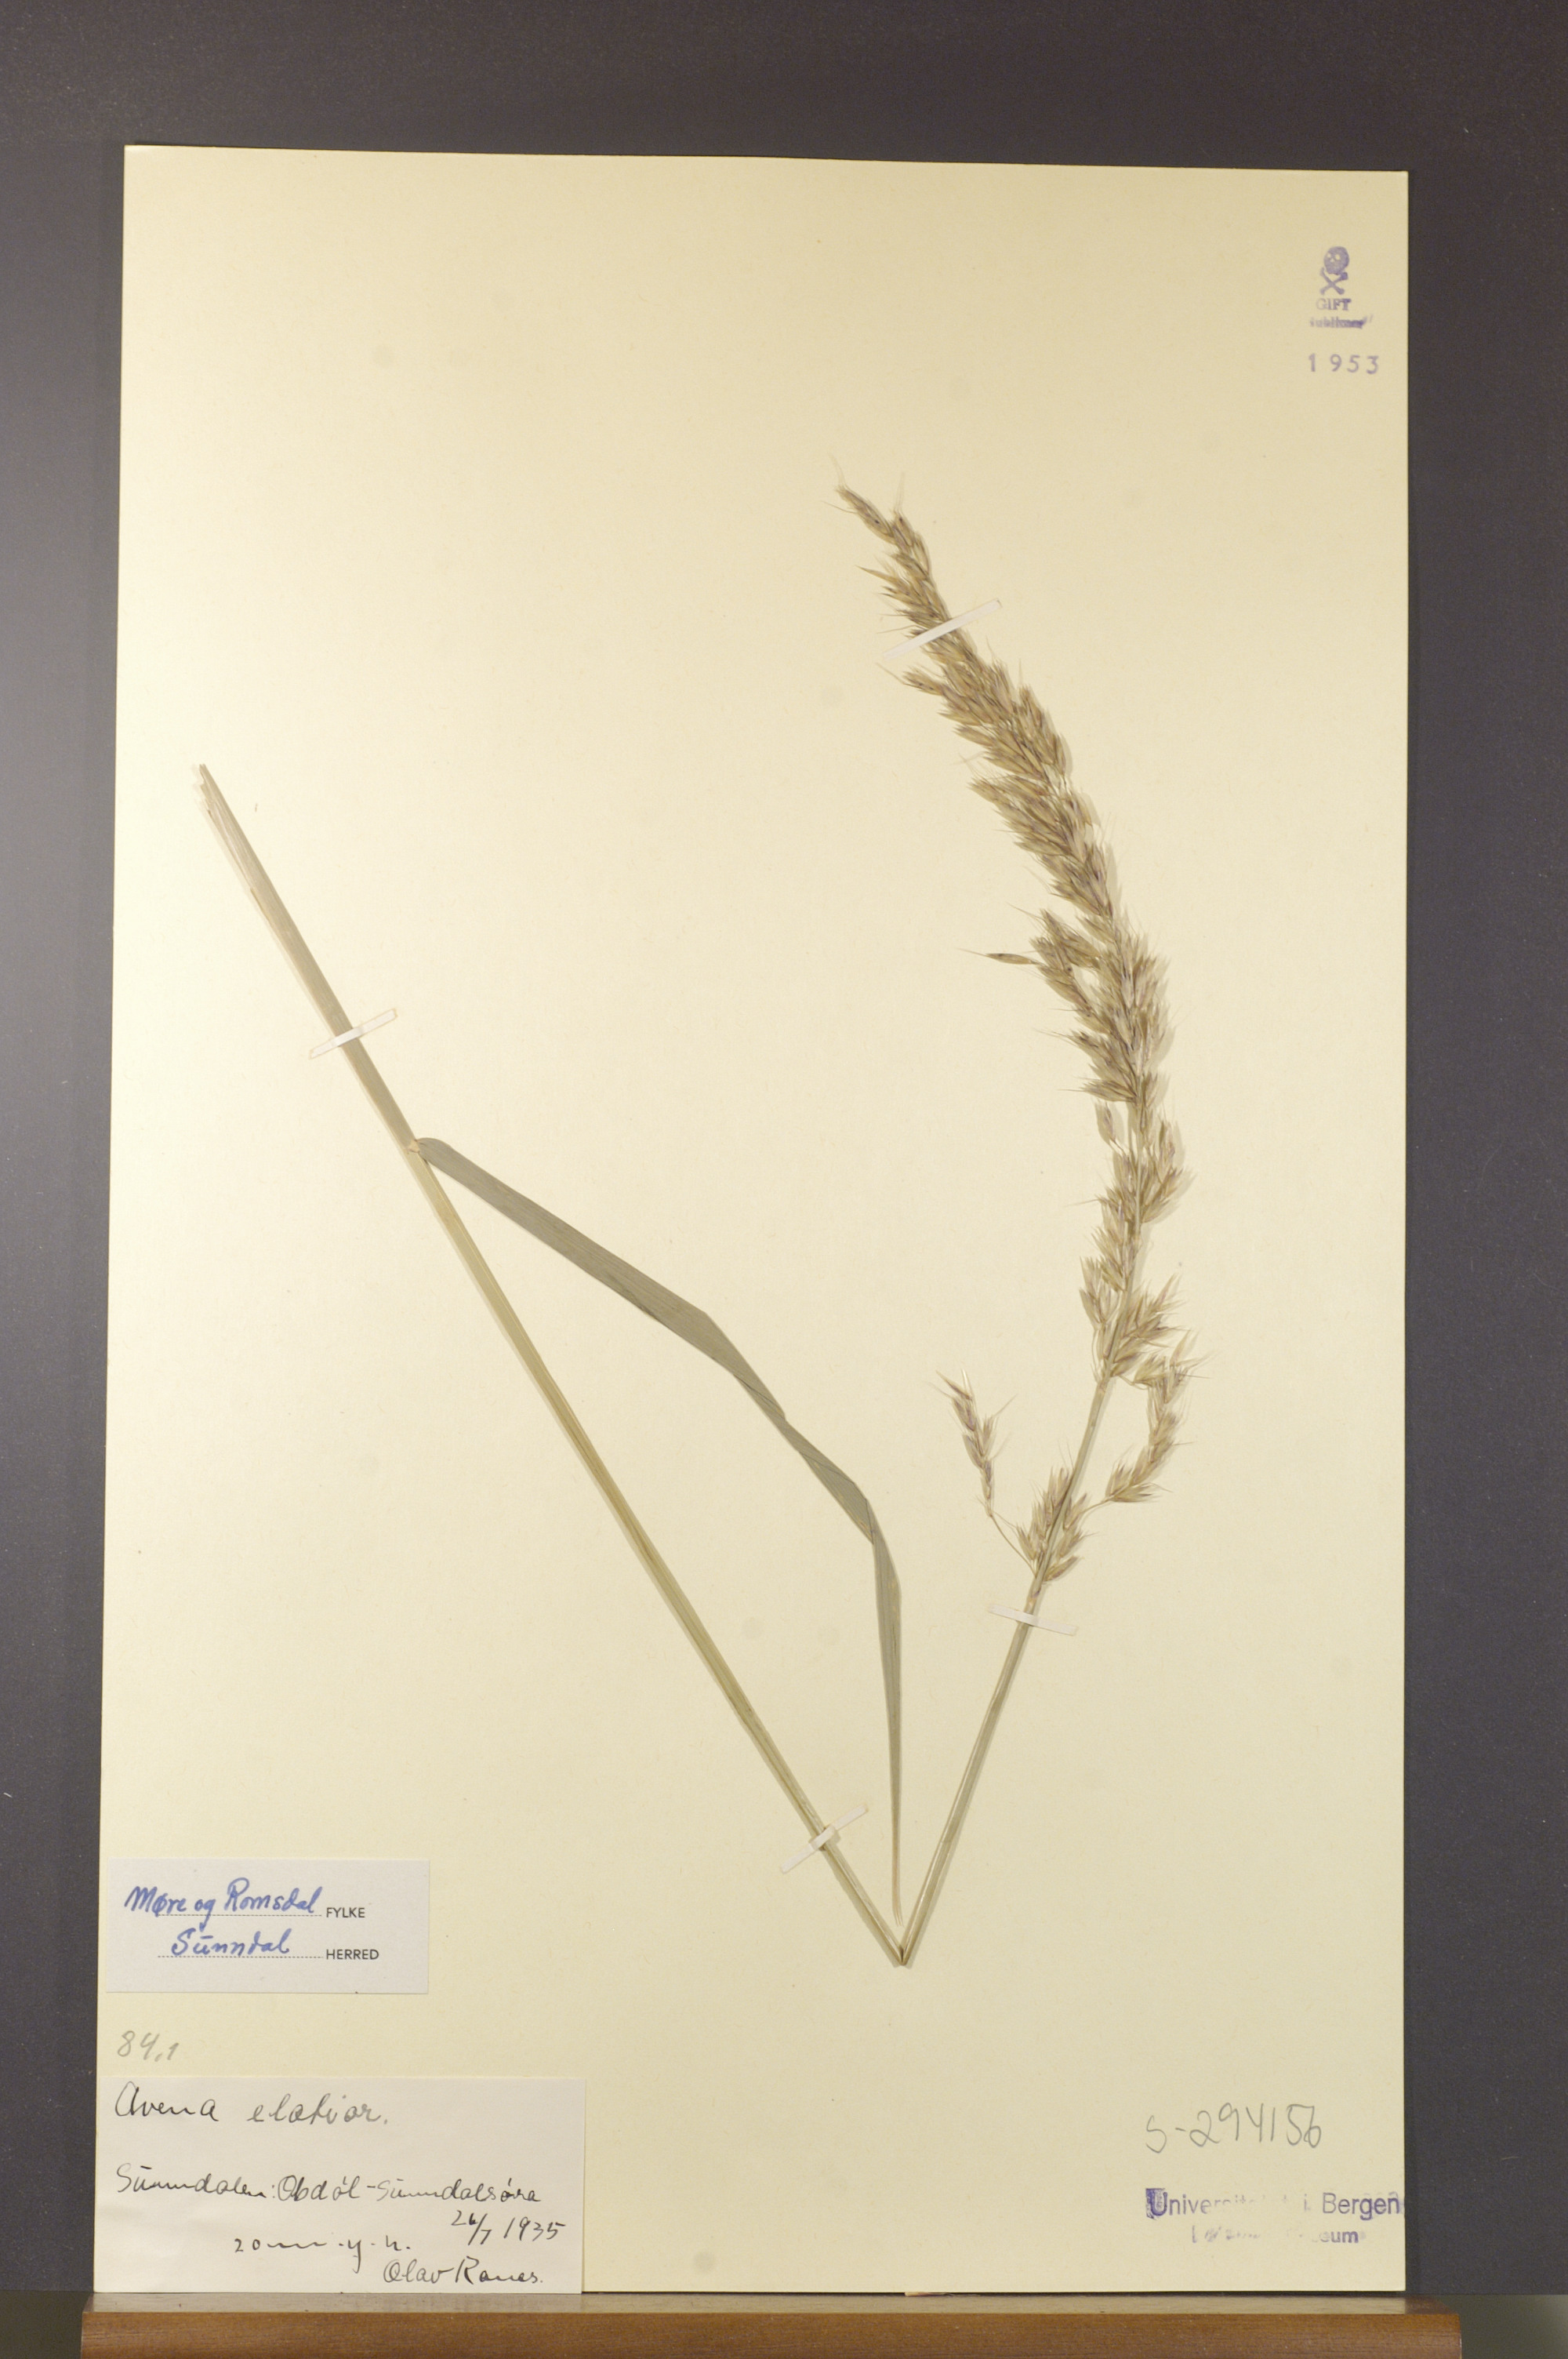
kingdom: Plantae
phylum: Tracheophyta
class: Liliopsida
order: Poales
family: Poaceae
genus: Arrhenatherum
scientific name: Arrhenatherum elatius
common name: Tall oatgrass
